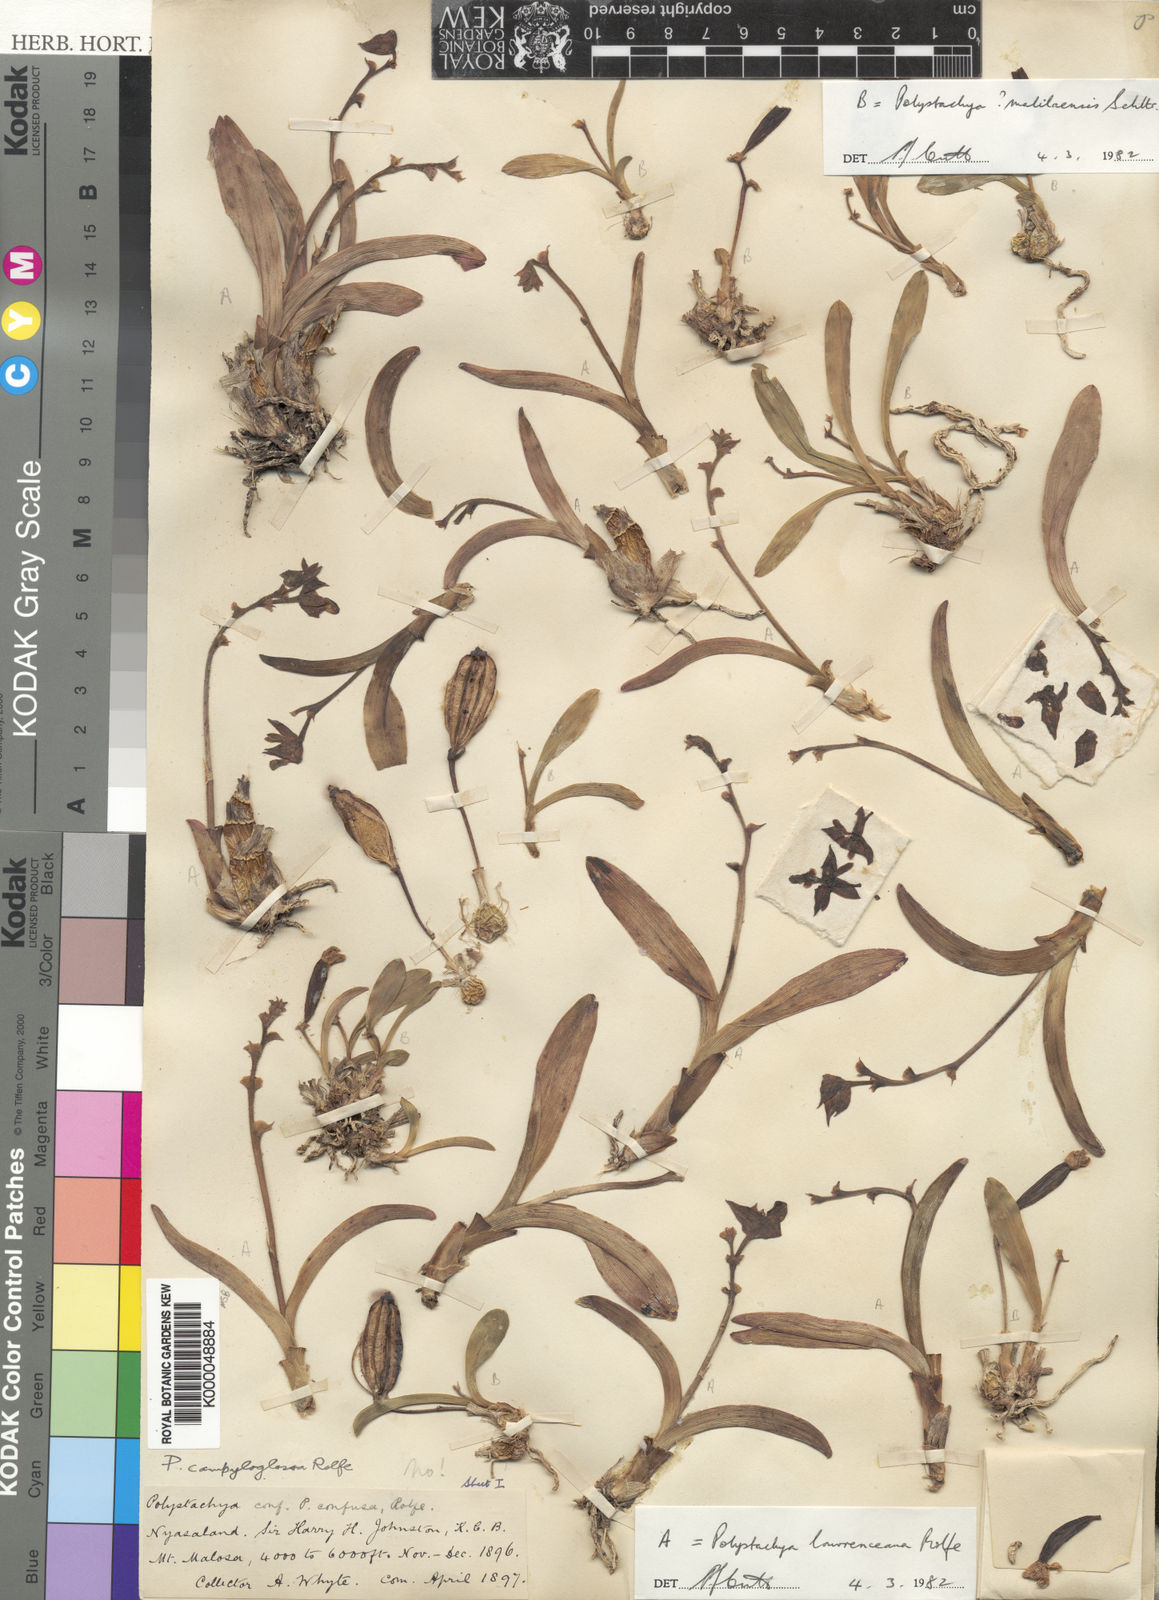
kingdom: Plantae
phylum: Tracheophyta
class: Liliopsida
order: Asparagales
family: Orchidaceae
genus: Polystachya
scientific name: Polystachya lawrenceana
